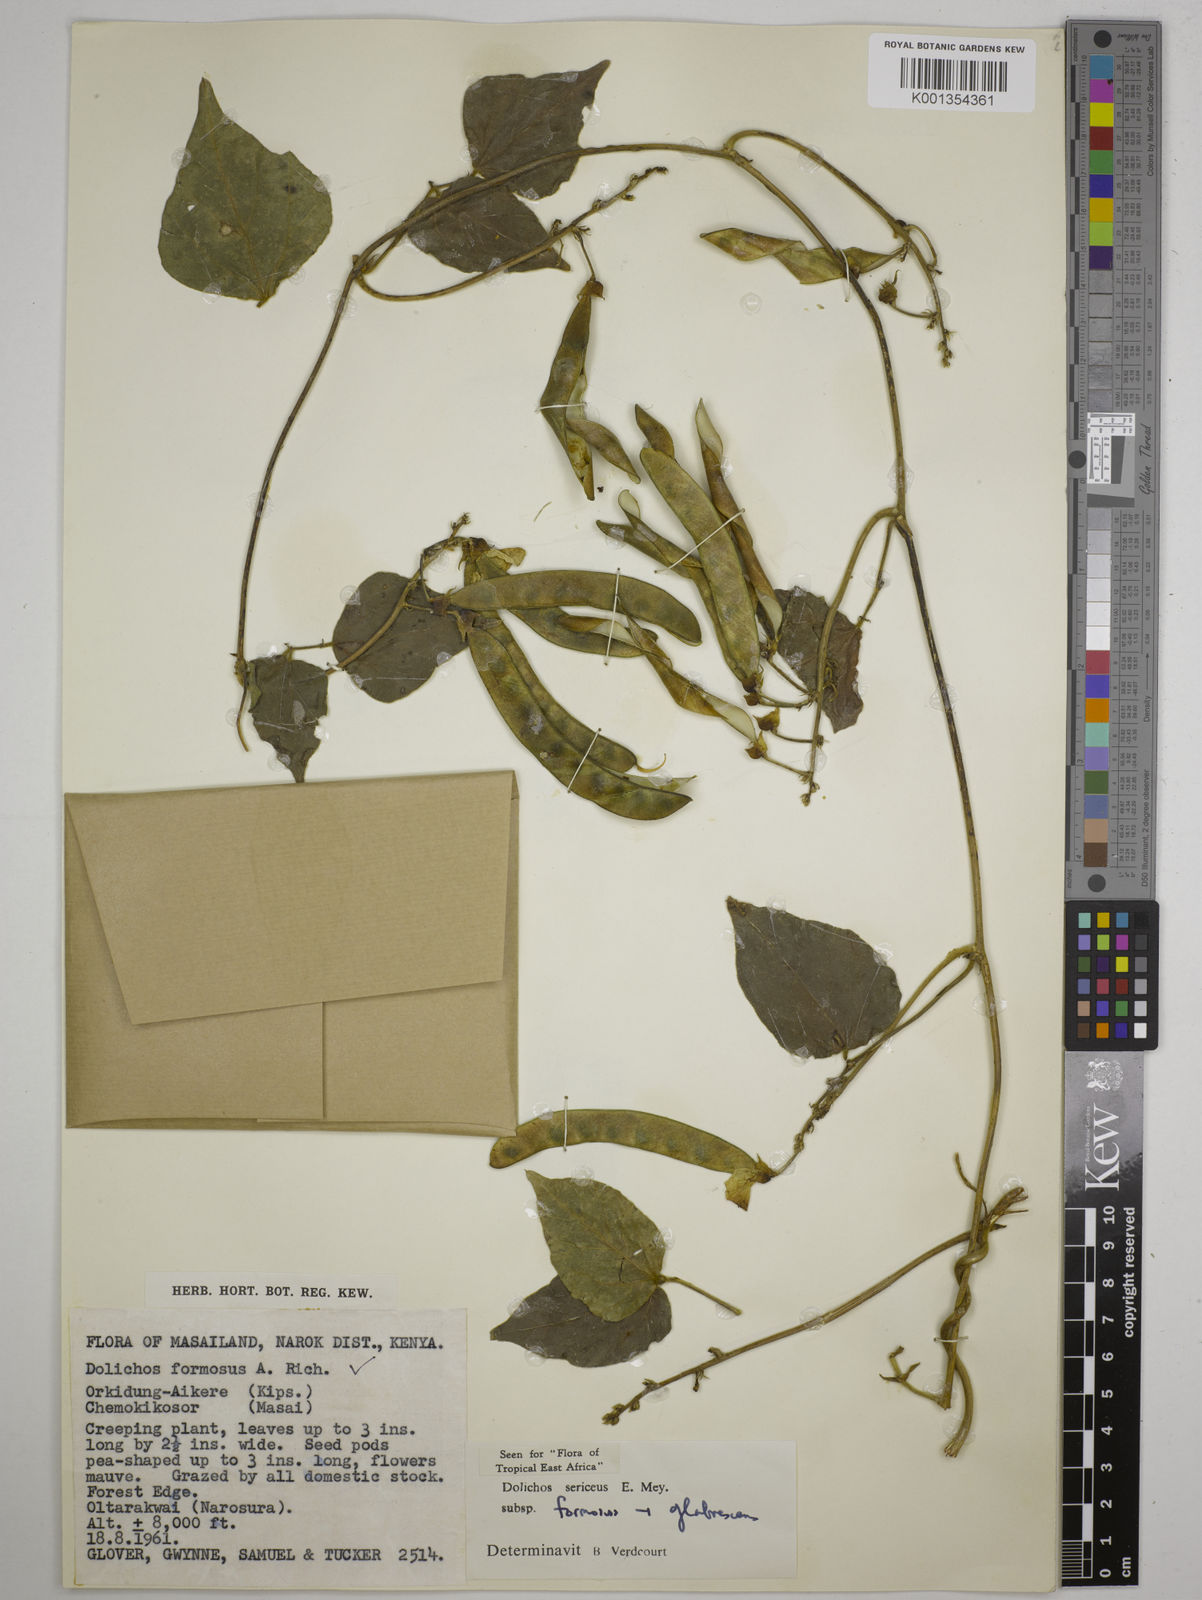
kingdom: Plantae
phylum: Tracheophyta
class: Magnoliopsida
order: Fabales
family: Fabaceae
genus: Dolichos
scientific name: Dolichos
